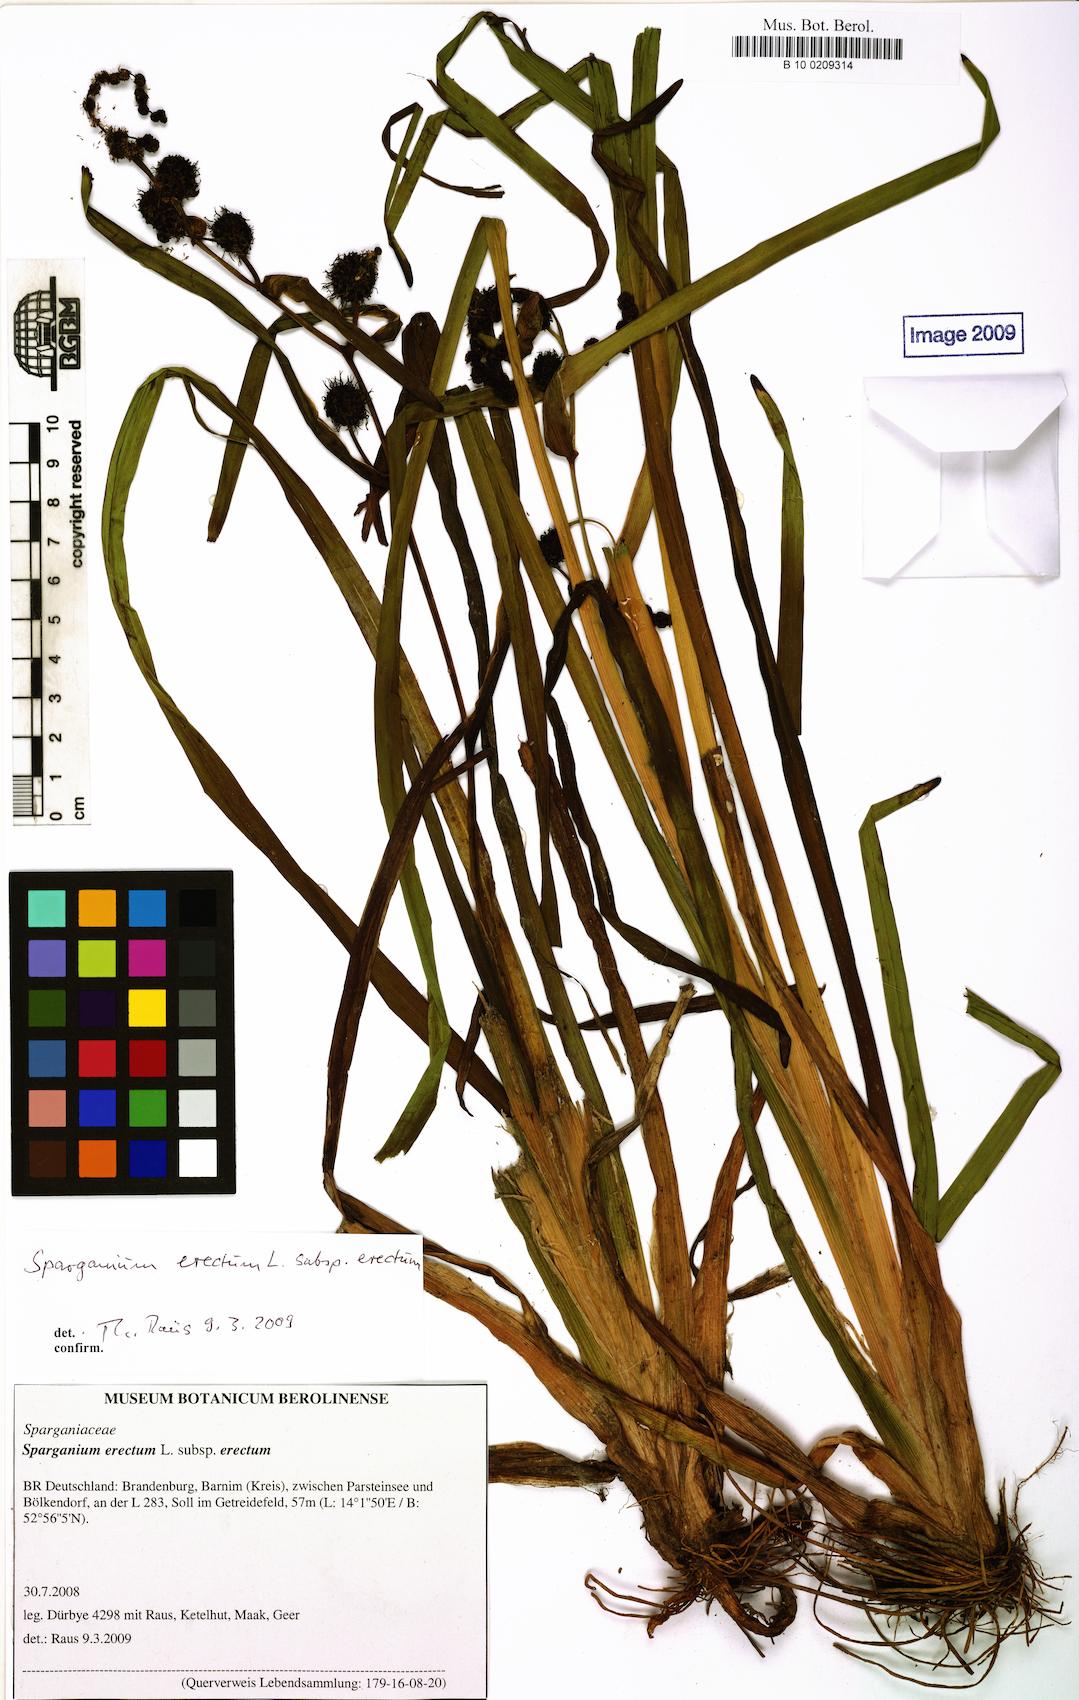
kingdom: Plantae
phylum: Tracheophyta
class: Liliopsida
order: Poales
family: Typhaceae
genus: Sparganium
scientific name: Sparganium erectum
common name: Branched bur-reed
